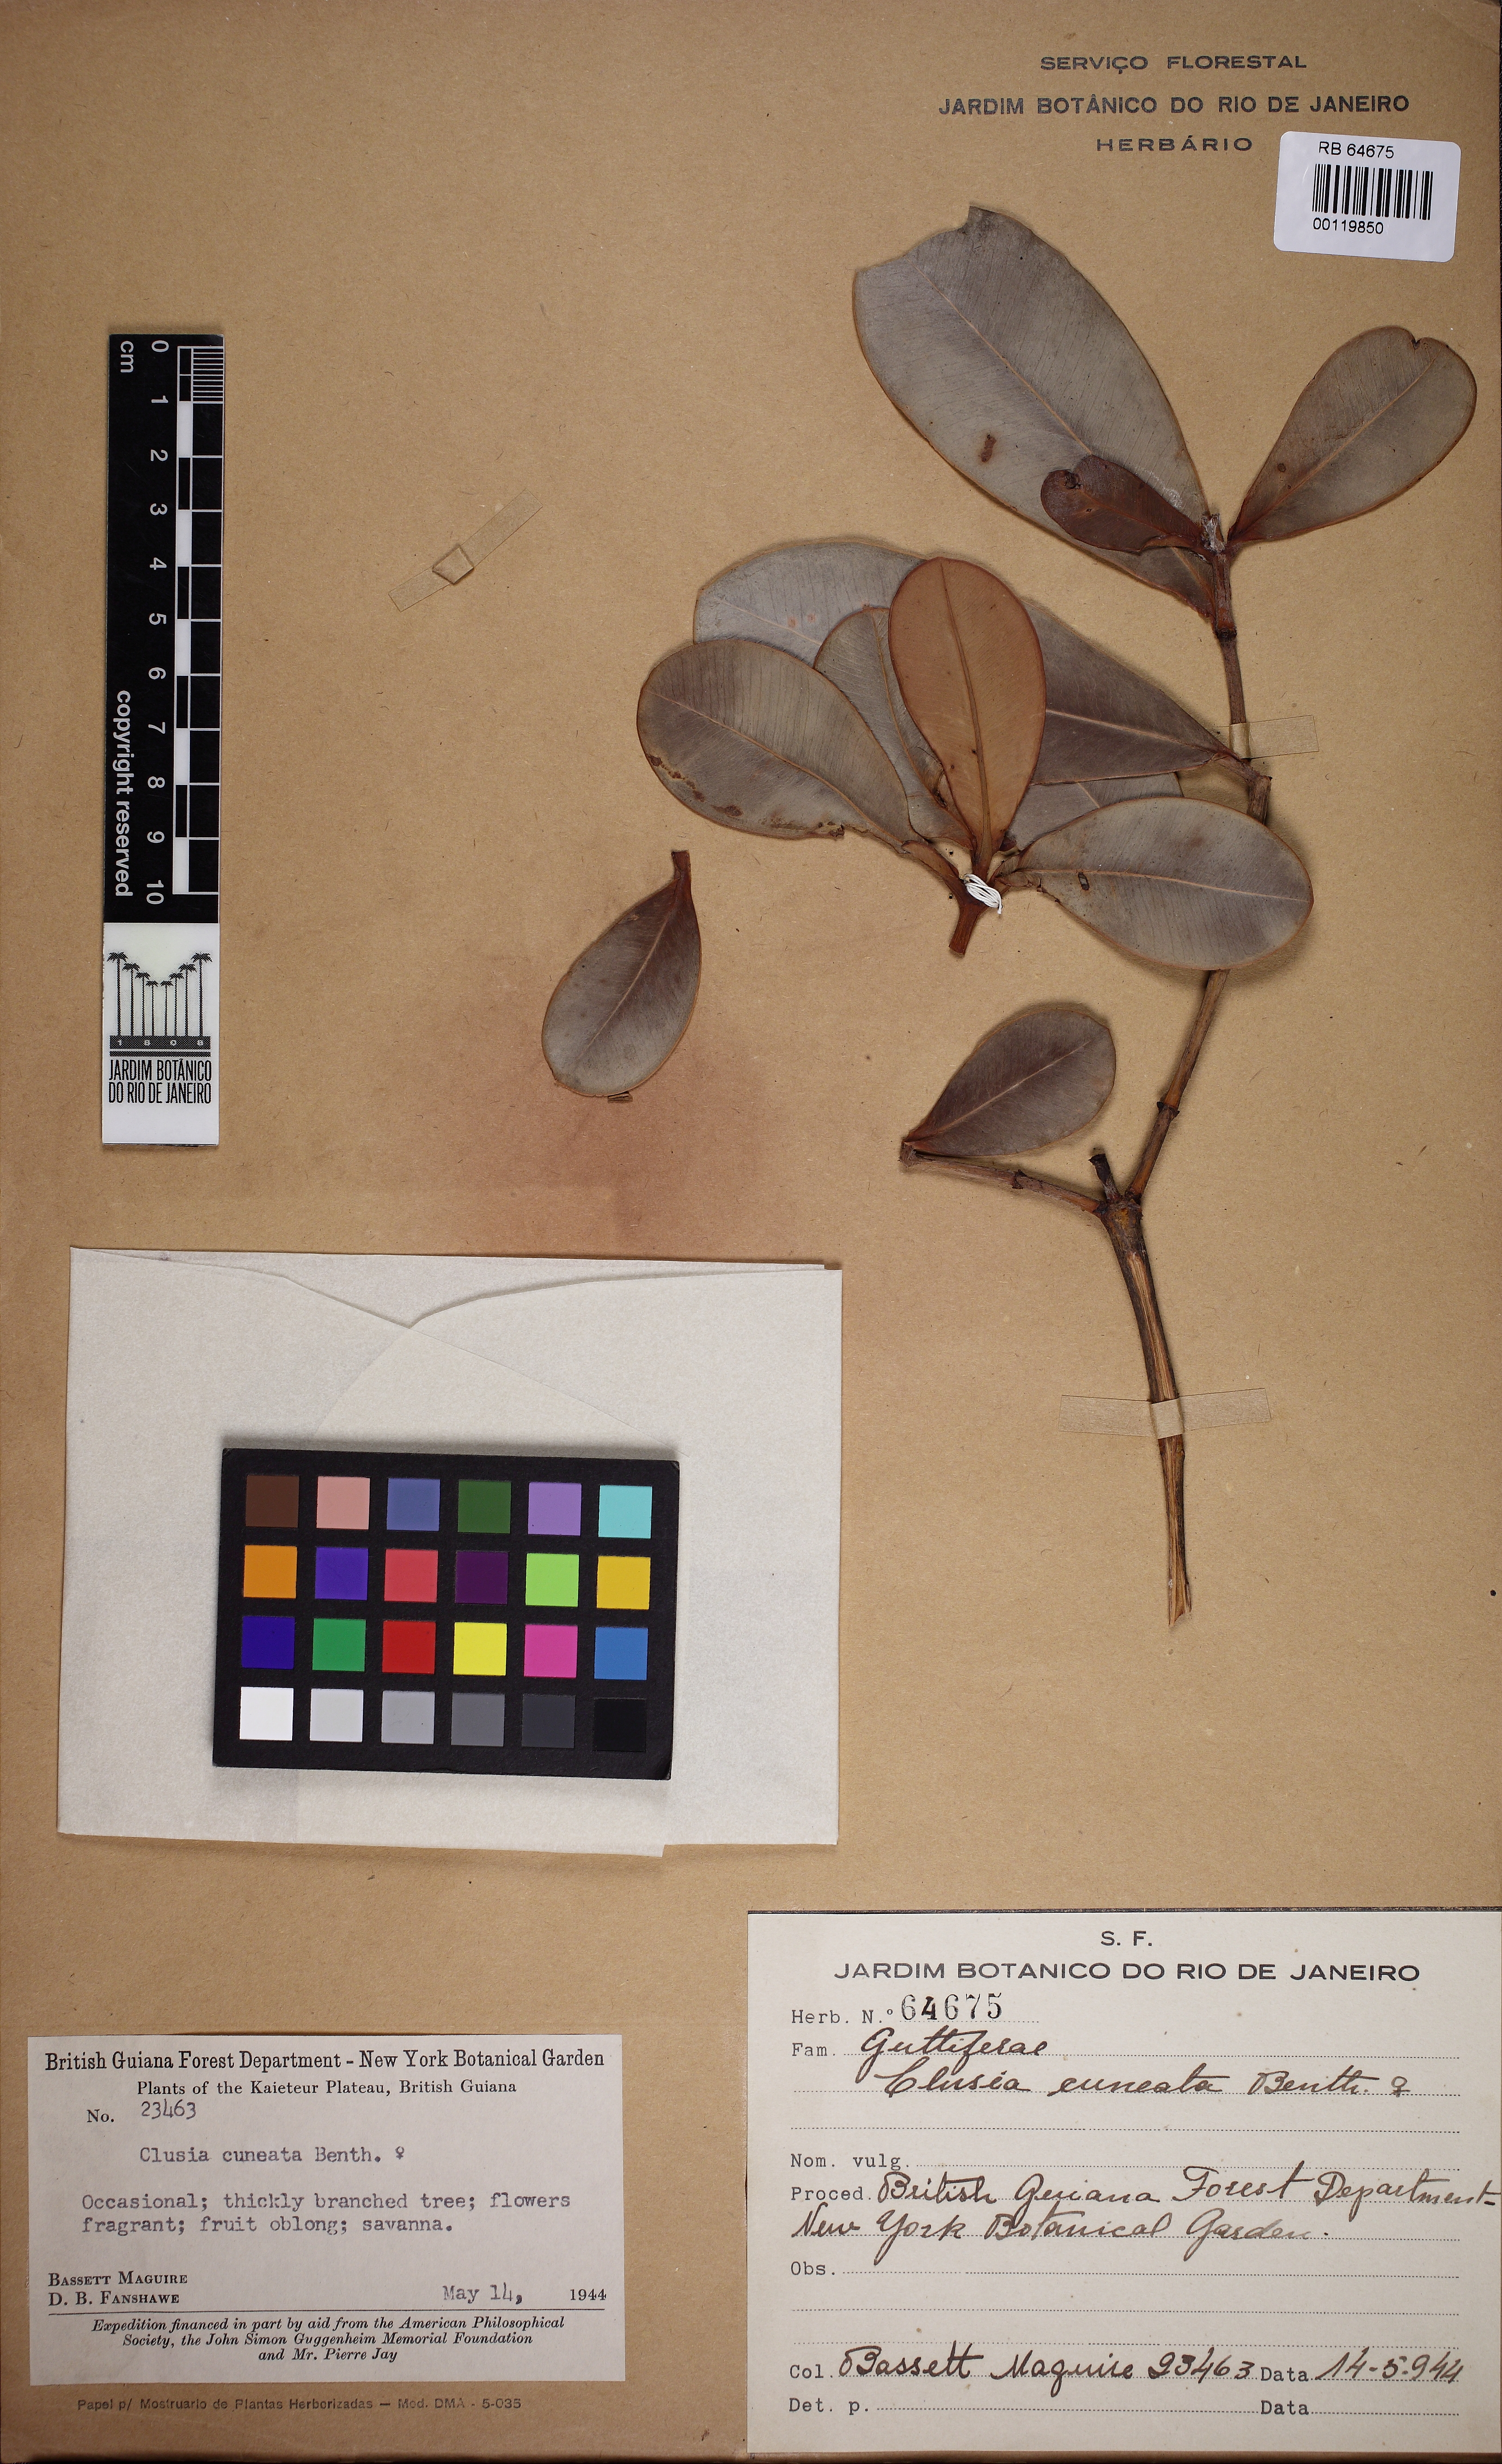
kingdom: Plantae
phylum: Tracheophyta
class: Magnoliopsida
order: Malpighiales
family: Clusiaceae
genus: Clusia
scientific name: Clusia cuneata
